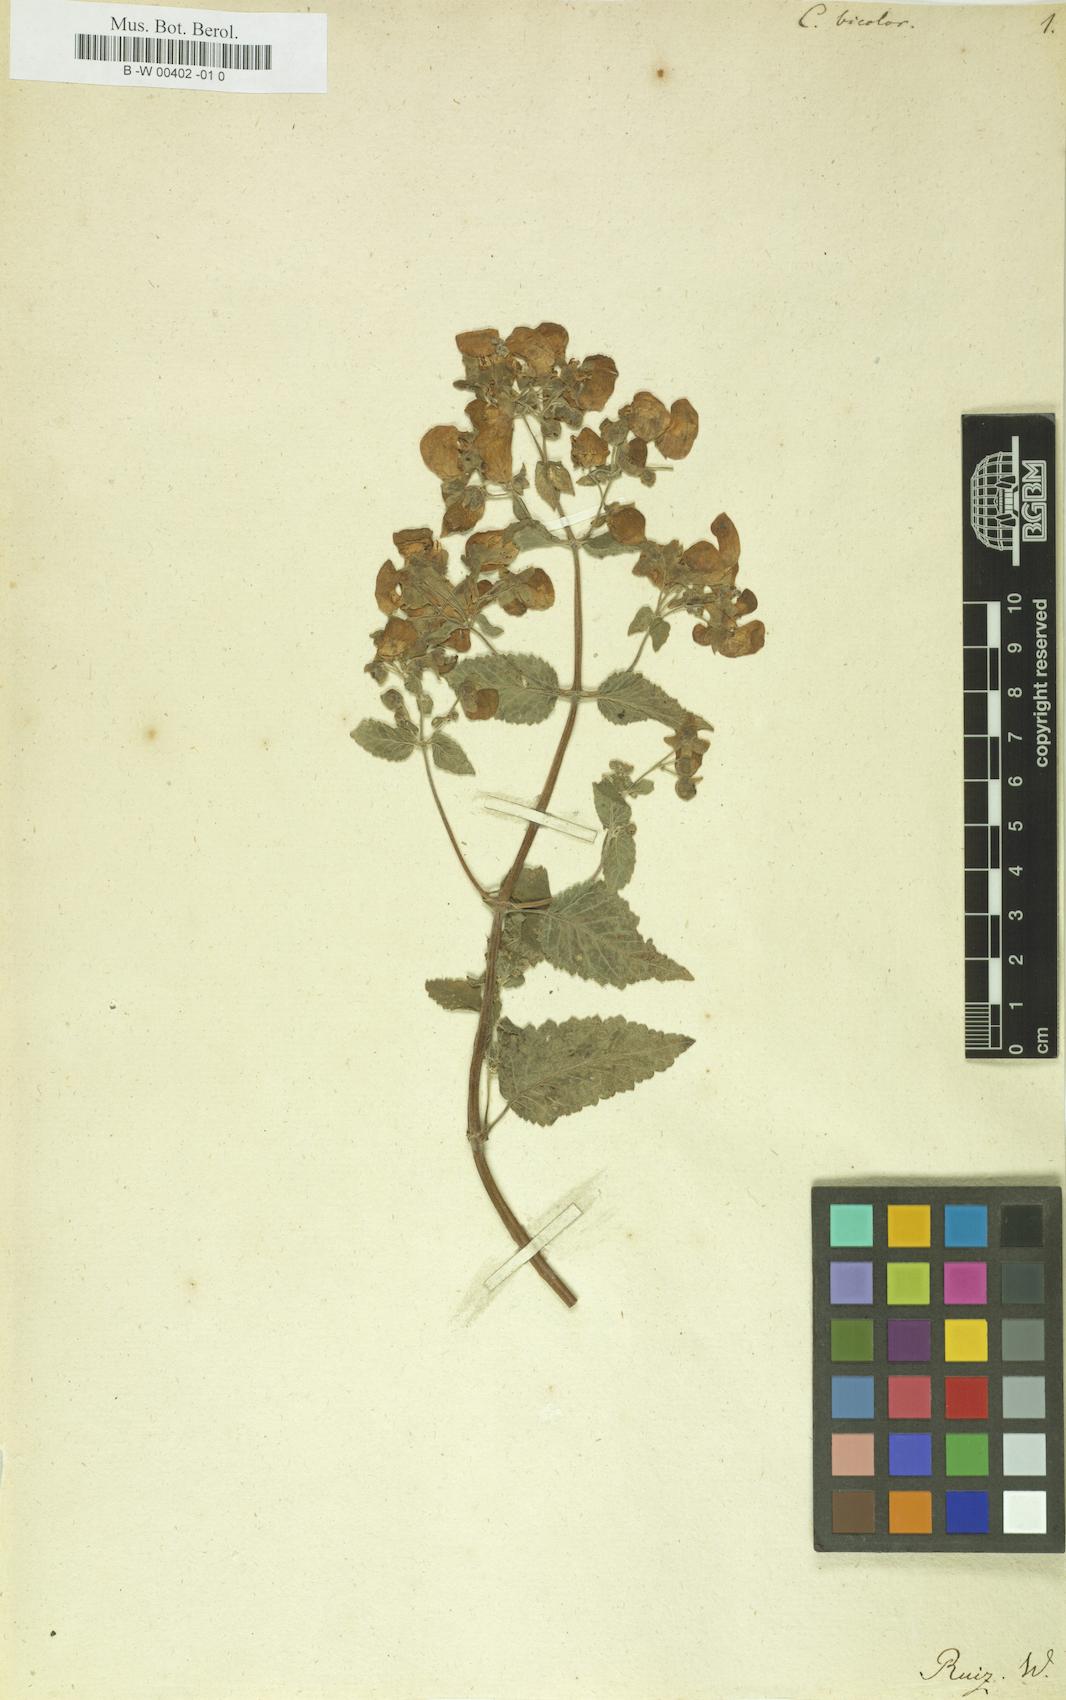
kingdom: Plantae
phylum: Tracheophyta
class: Magnoliopsida
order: Lamiales
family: Calceolariaceae
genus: Calceolaria
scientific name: Calceolaria bicolor
